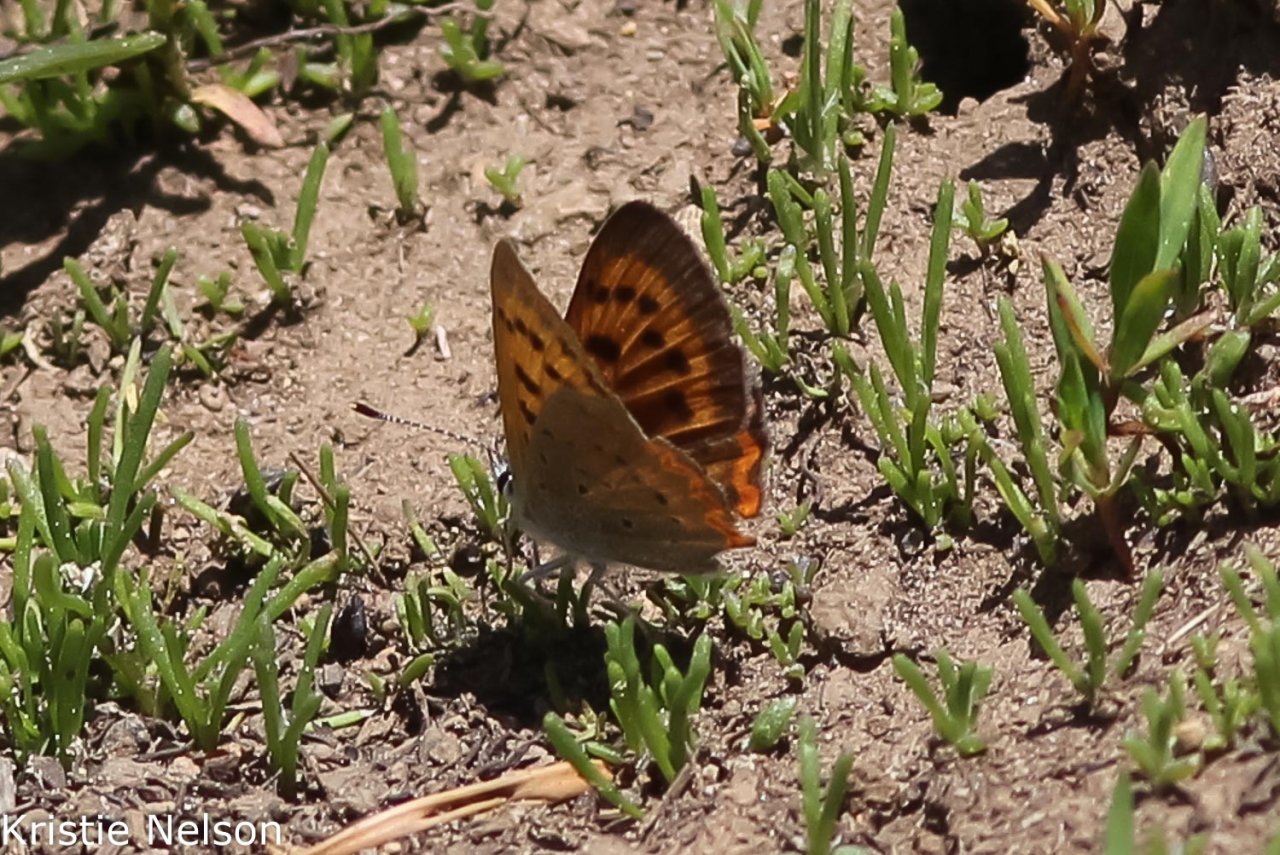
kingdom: Animalia
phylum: Arthropoda
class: Insecta
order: Lepidoptera
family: Sesiidae
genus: Sesia
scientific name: Sesia Lycaena helloides
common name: Purplish Copper
